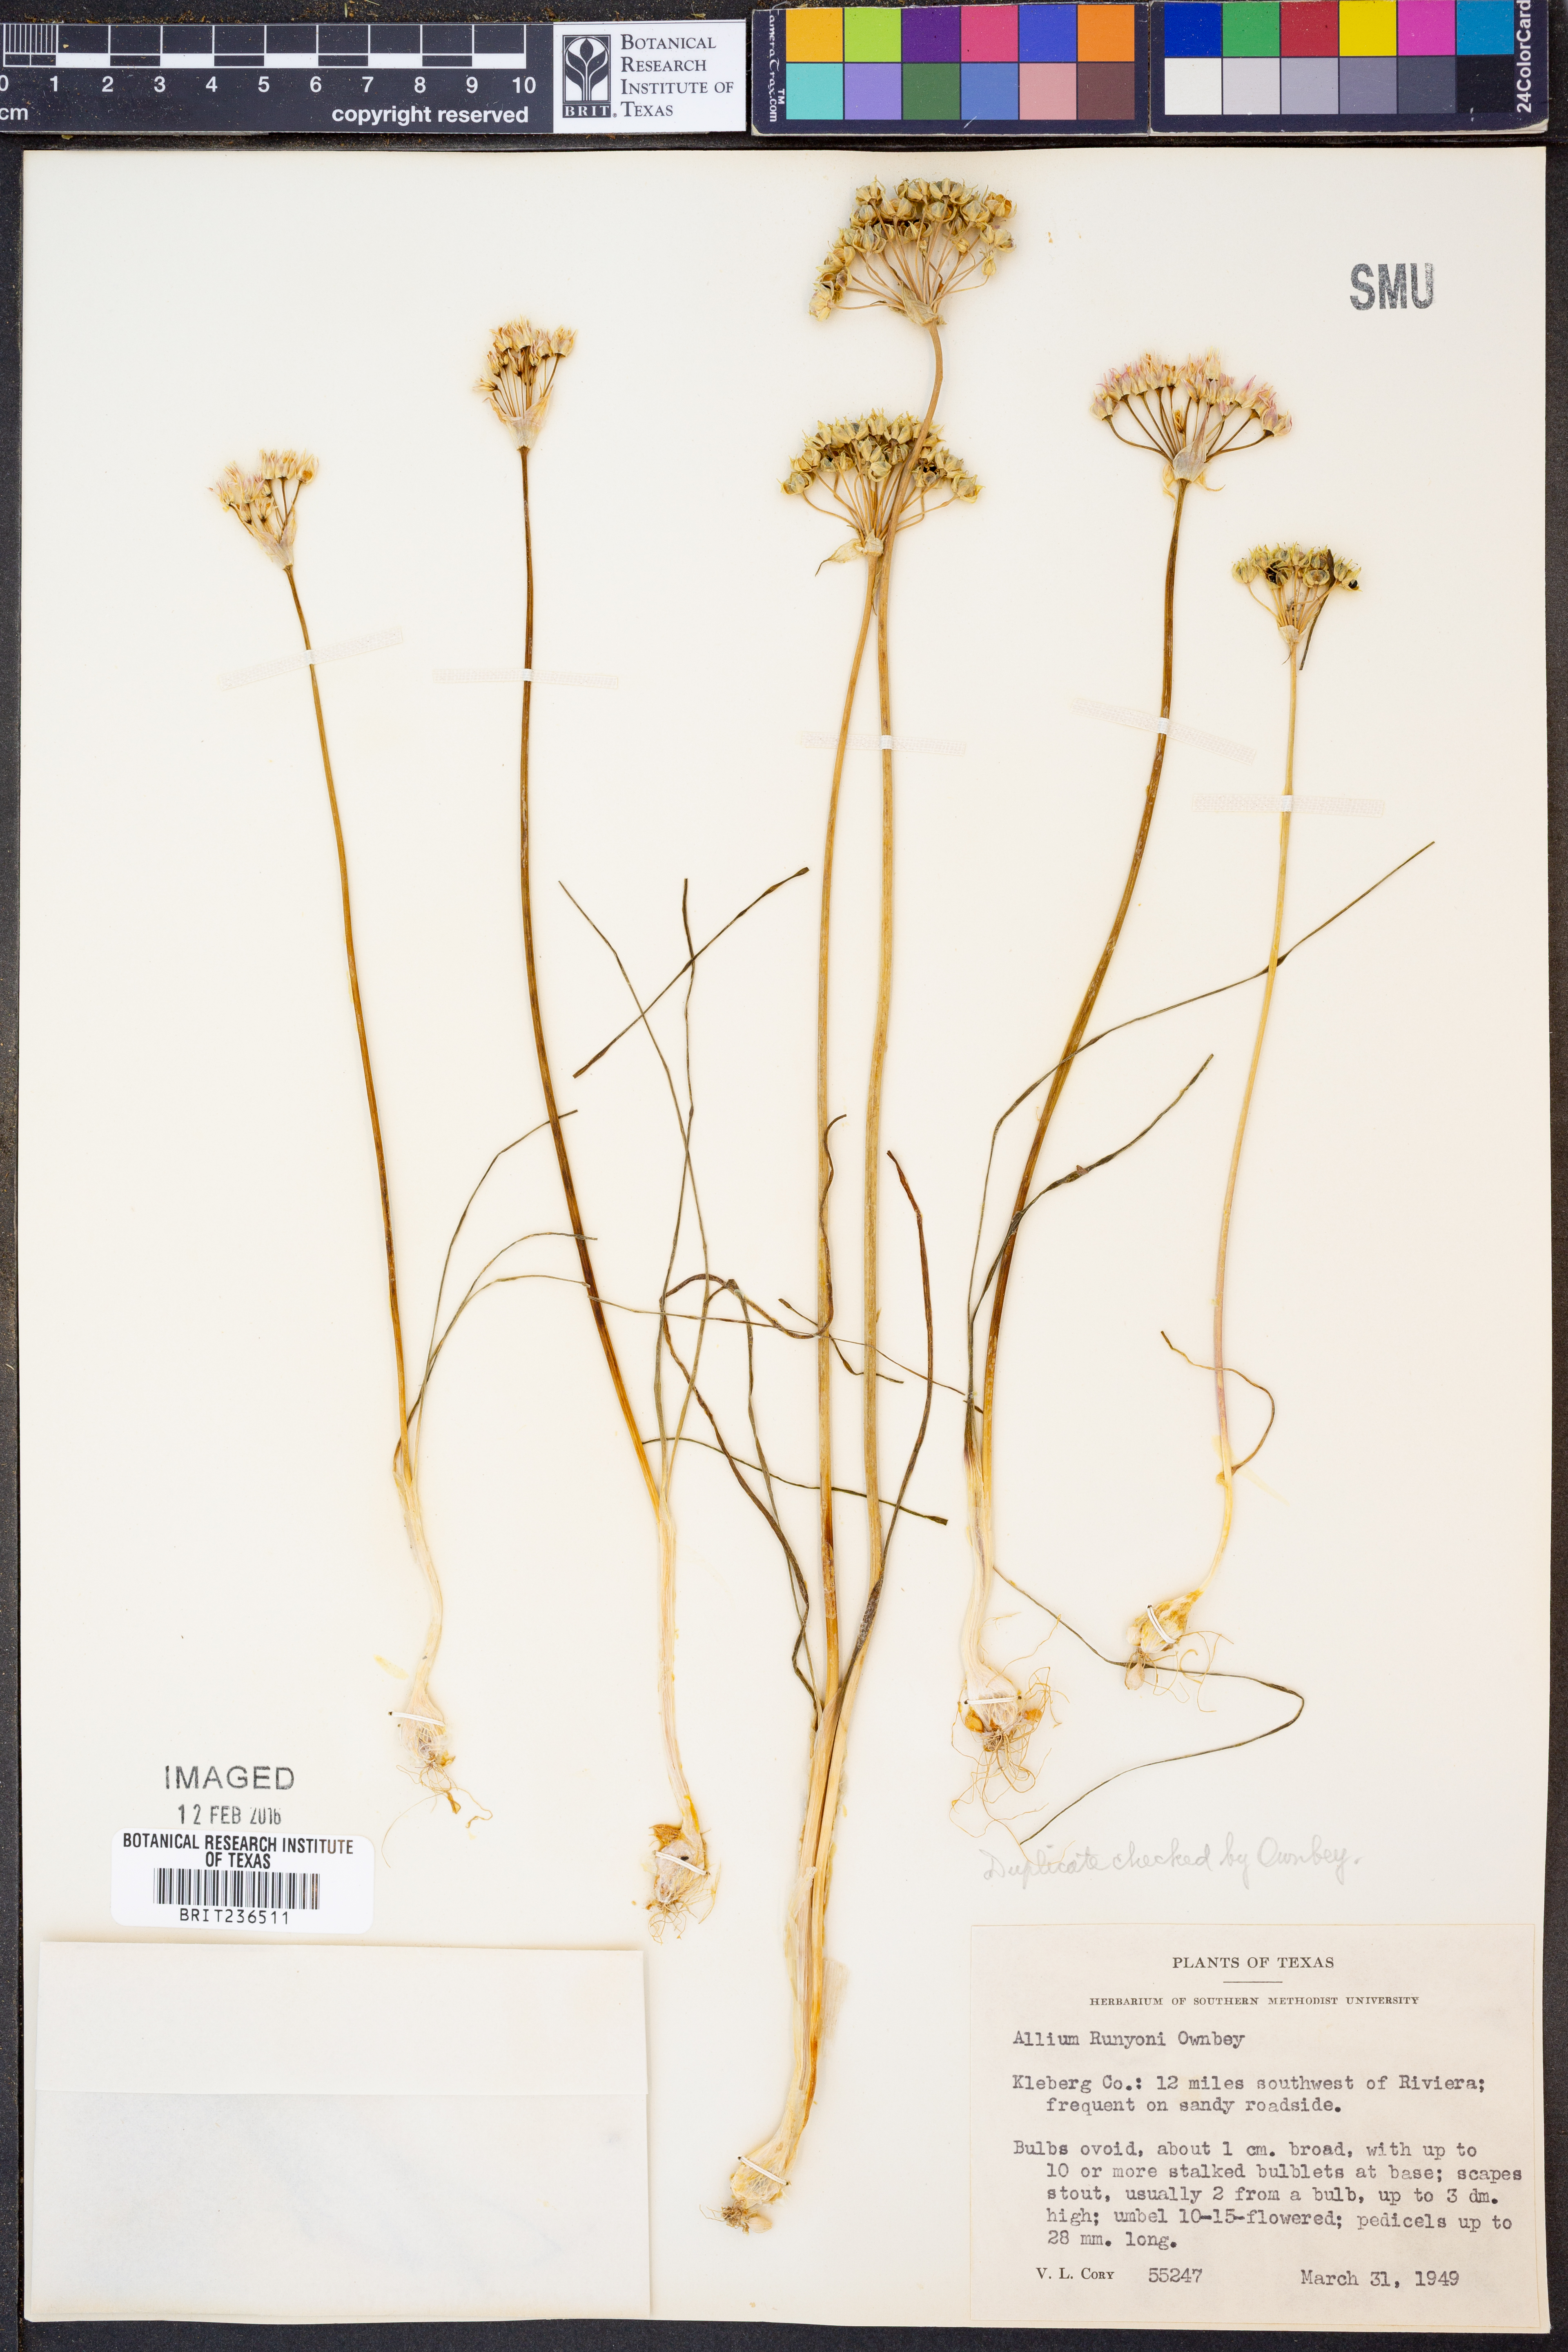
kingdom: Plantae
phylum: Tracheophyta
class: Liliopsida
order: Asparagales
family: Amaryllidaceae
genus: Allium
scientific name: Allium runyonii
